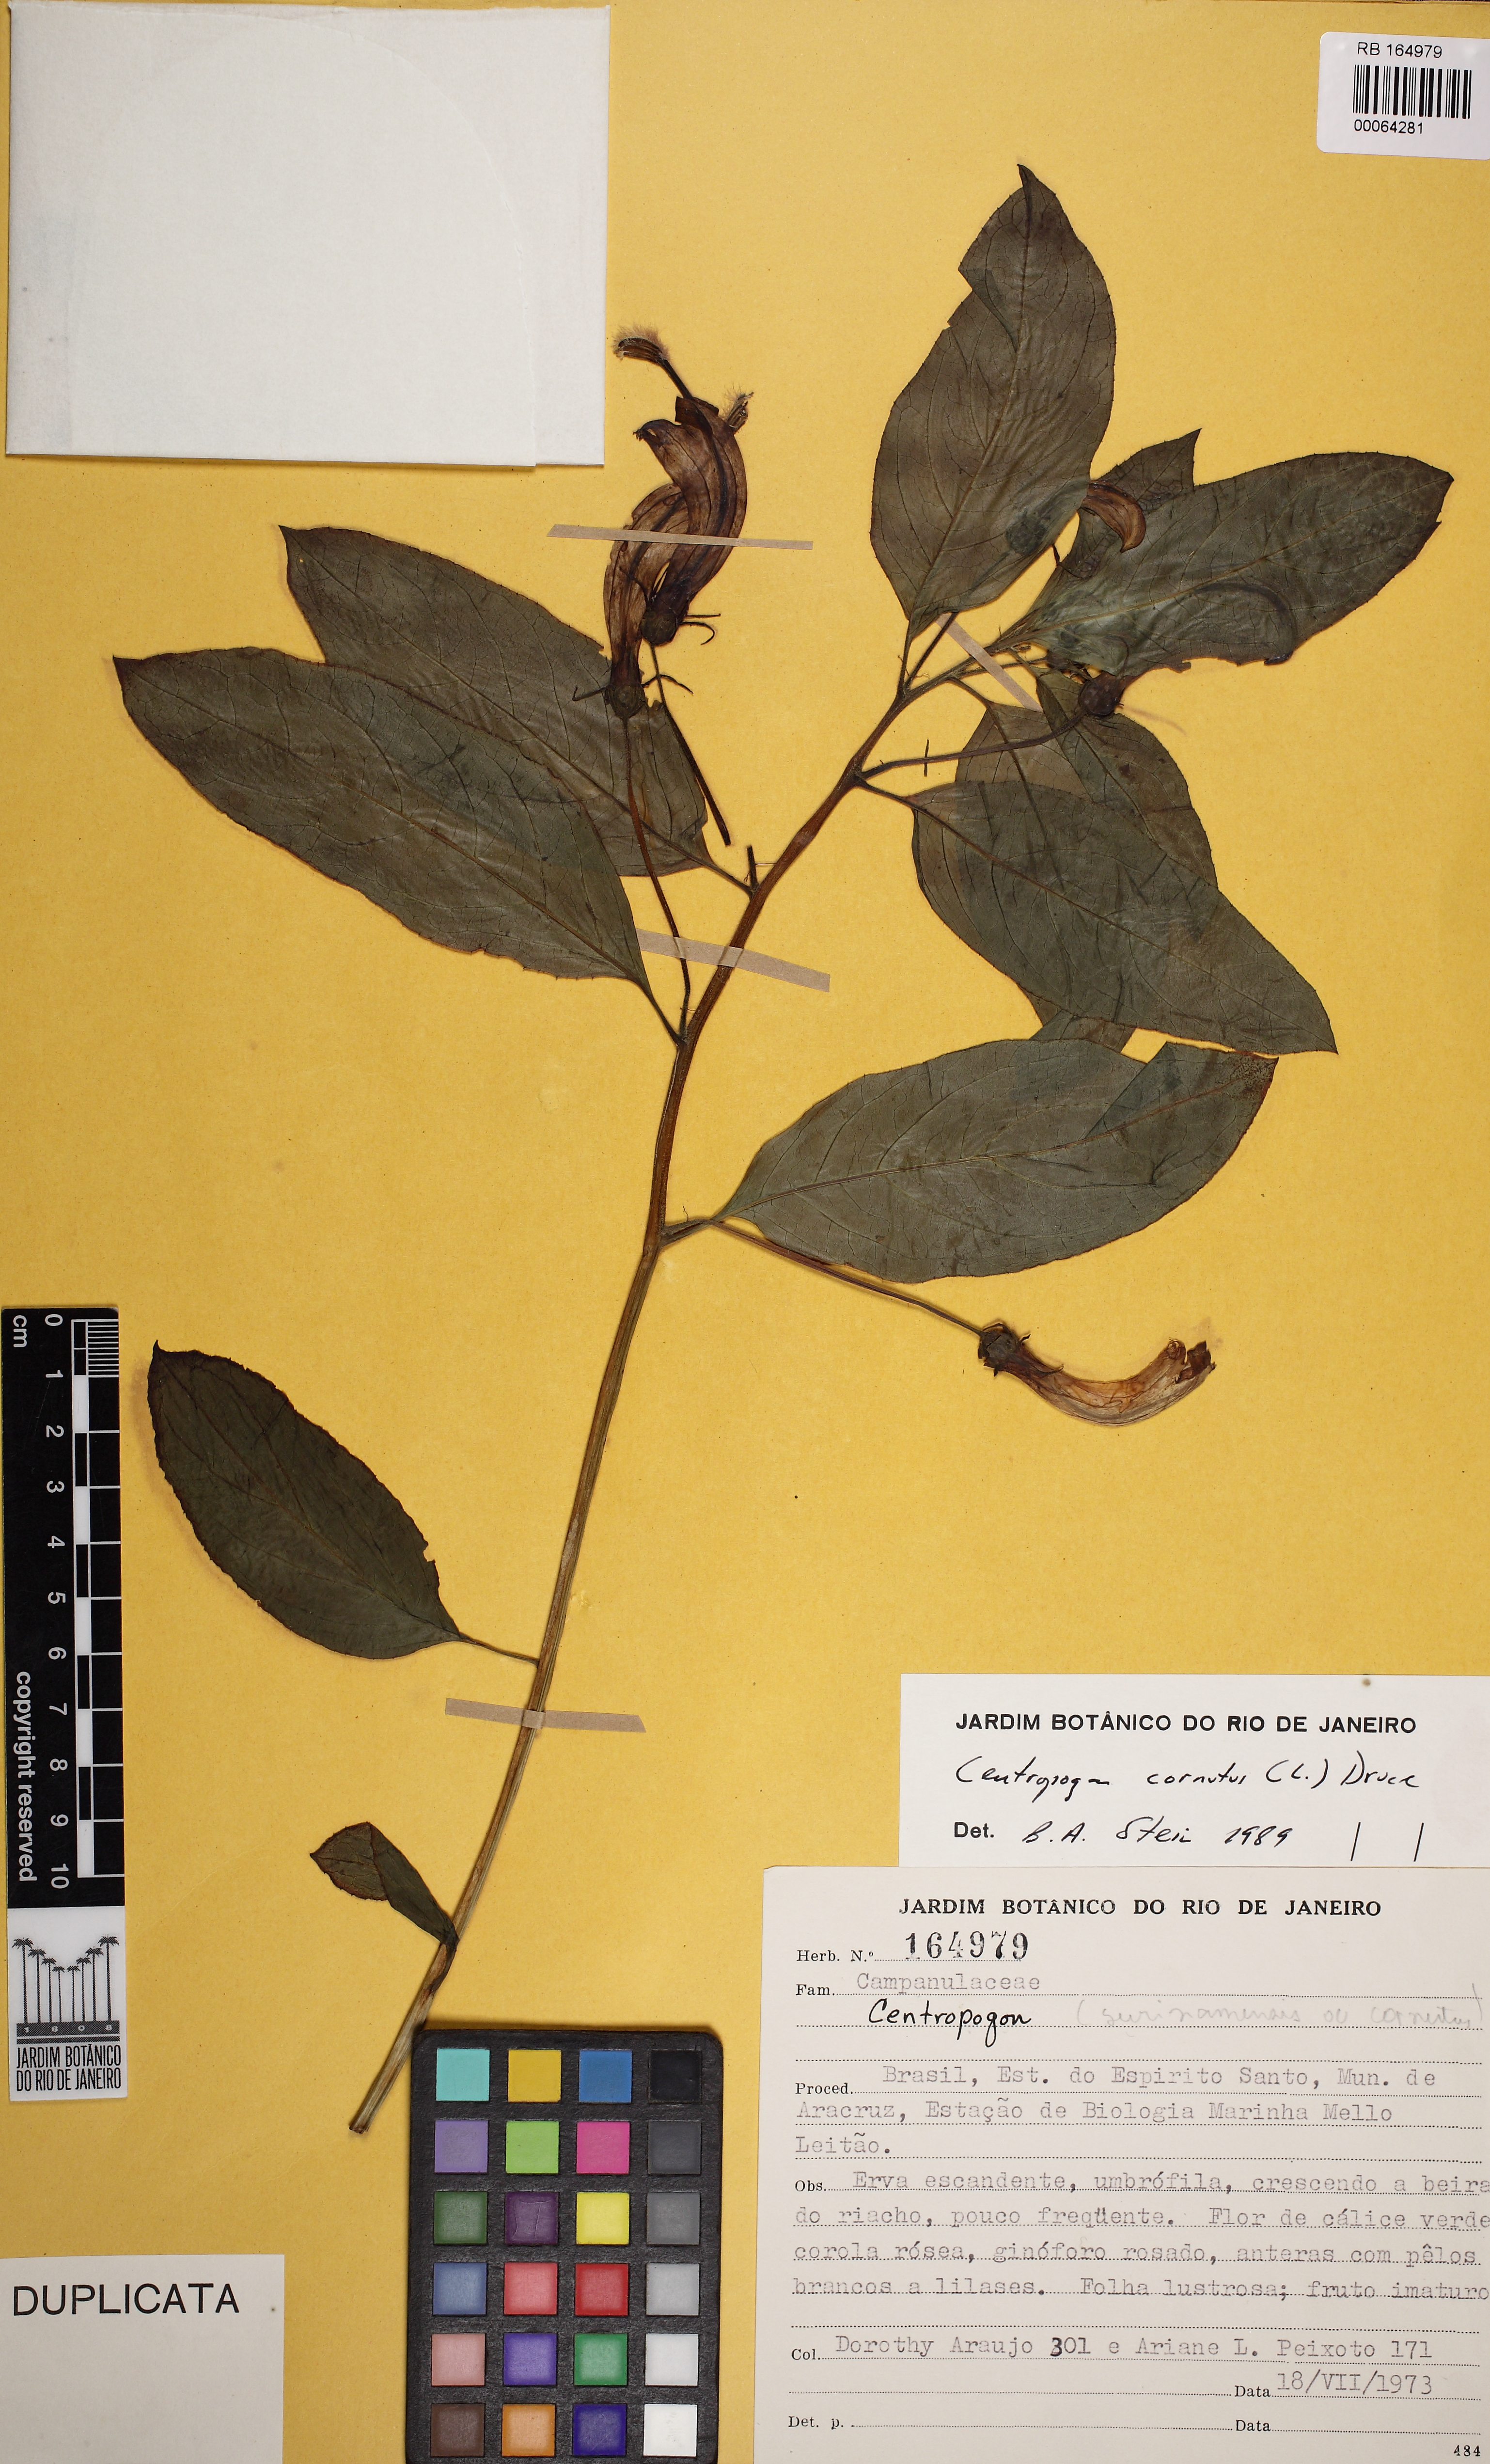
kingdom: Plantae
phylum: Tracheophyta
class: Magnoliopsida
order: Asterales
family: Campanulaceae
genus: Centropogon
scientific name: Centropogon cornutus
